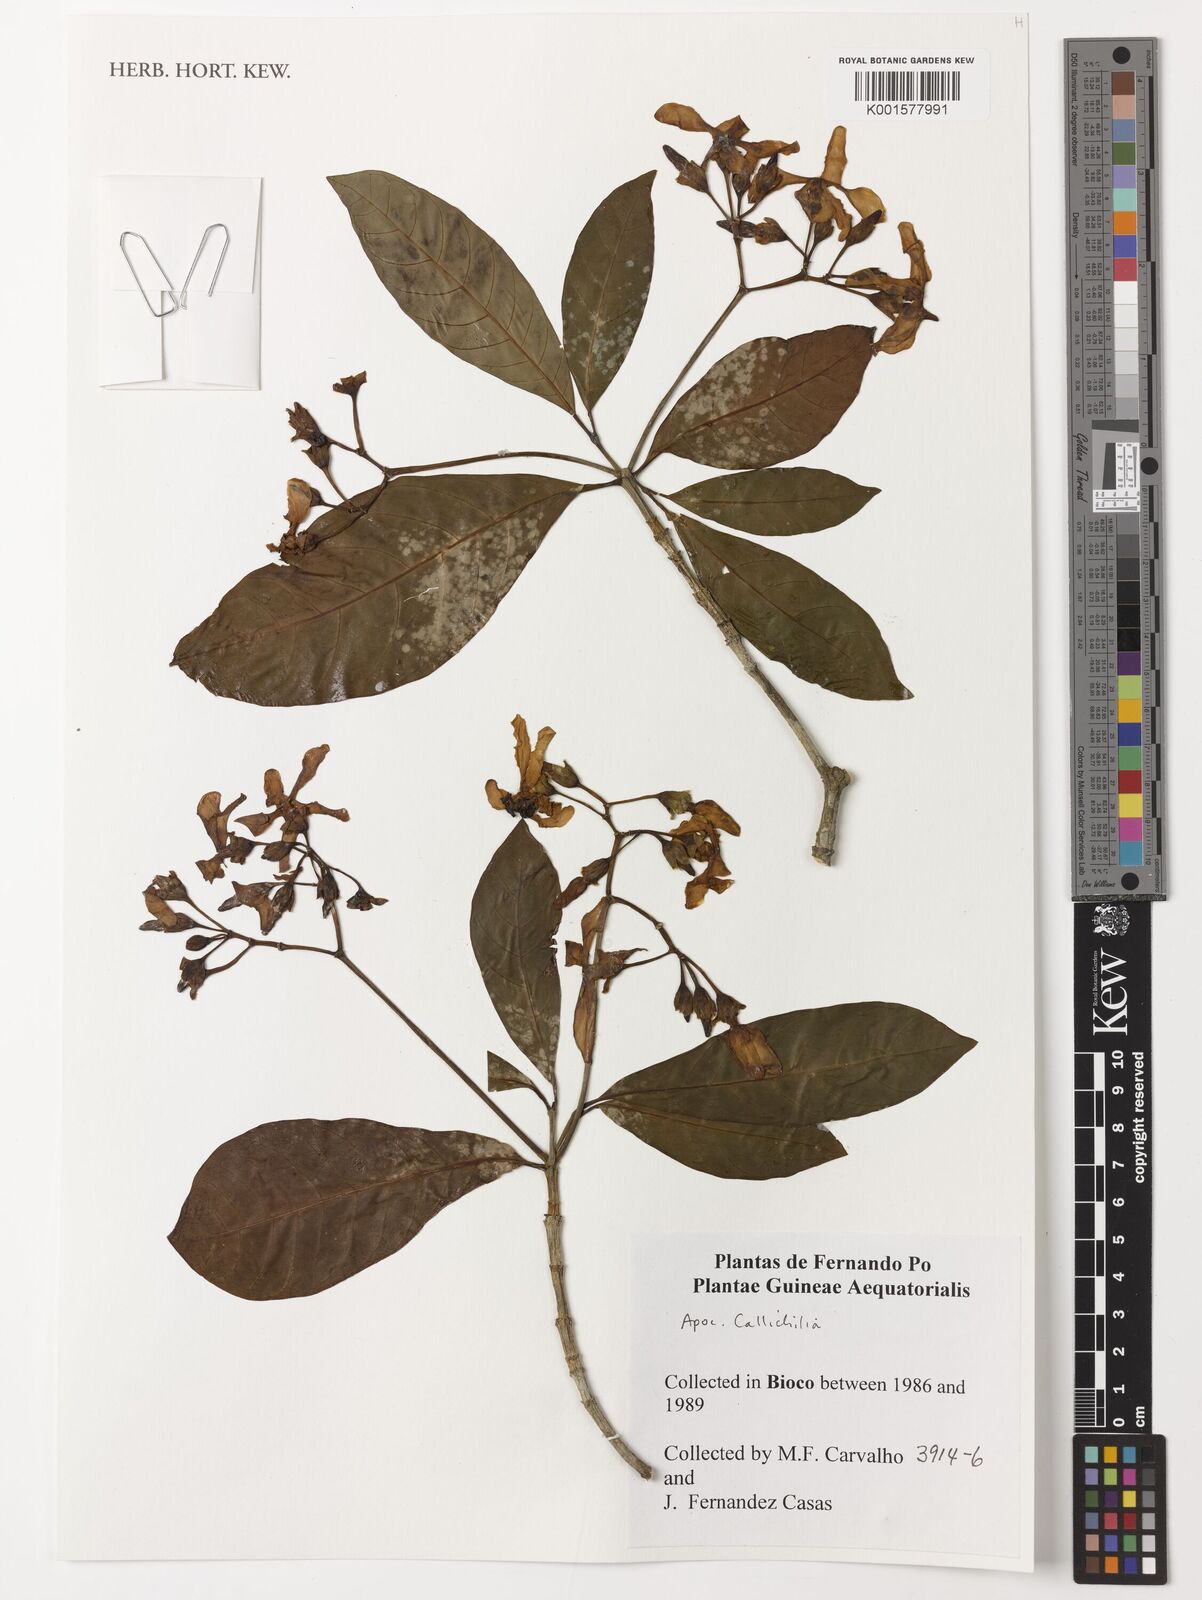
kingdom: Plantae
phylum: Tracheophyta
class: Magnoliopsida
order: Gentianales
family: Apocynaceae
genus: Callichilia
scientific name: Callichilia
